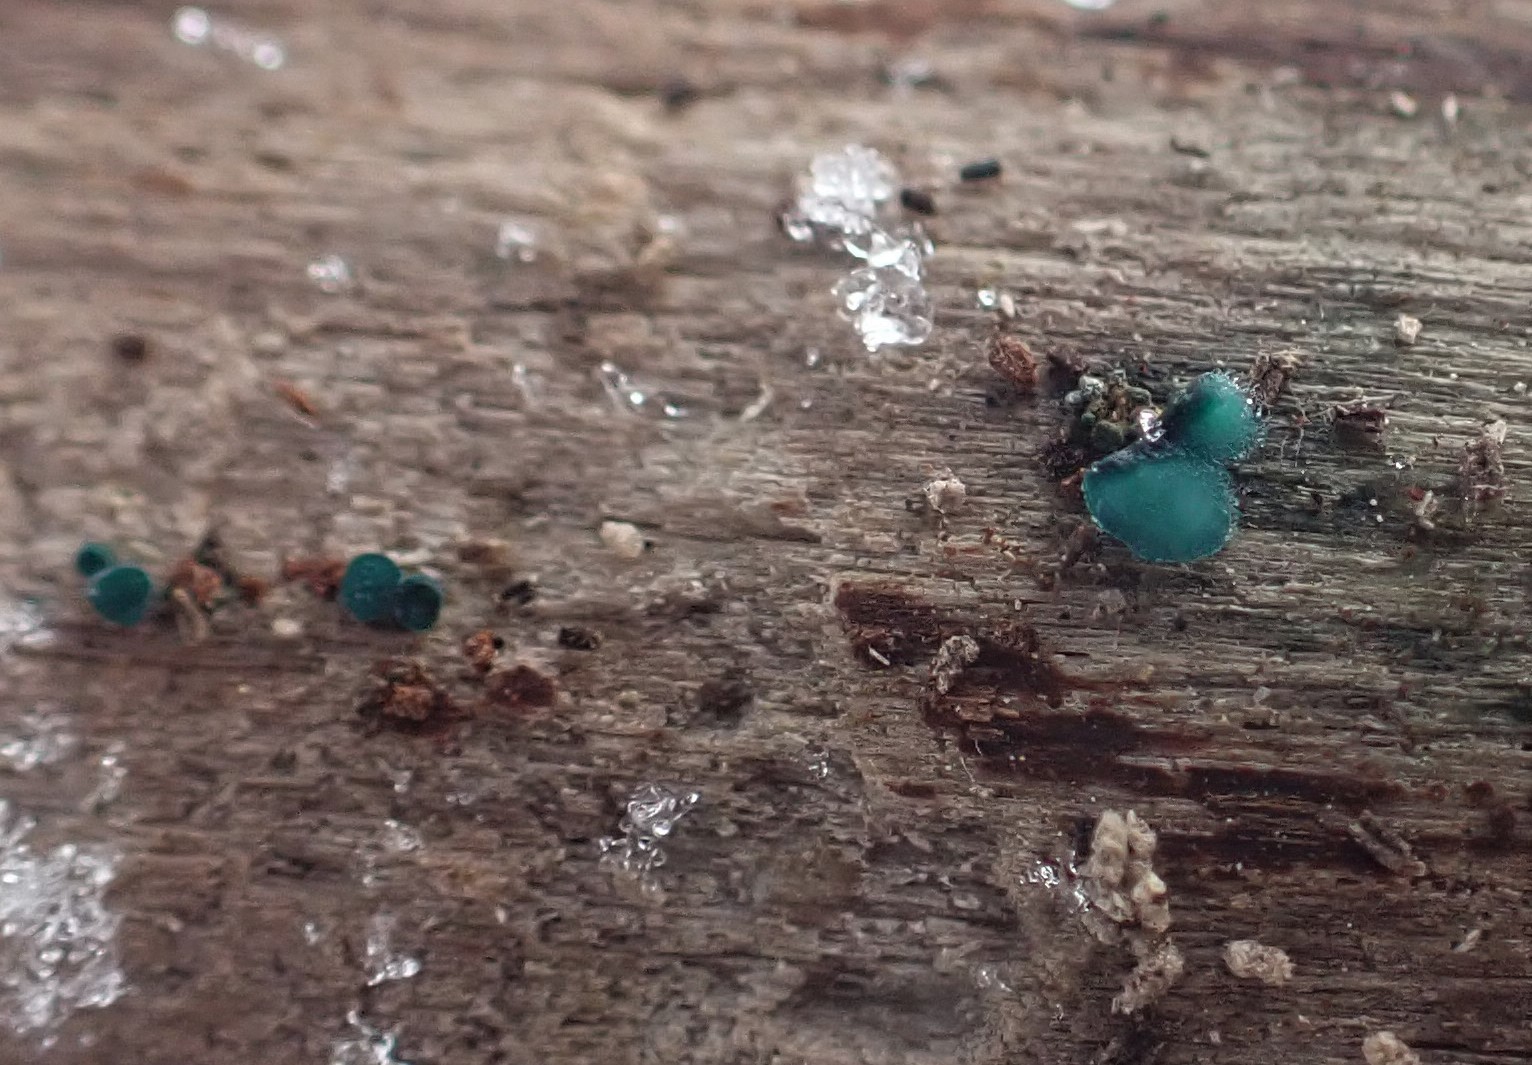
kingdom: Fungi
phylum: Ascomycota
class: Leotiomycetes
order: Helotiales
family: Chlorociboriaceae
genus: Chlorociboria
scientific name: Chlorociboria aeruginascens
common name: almindelig grønskive
